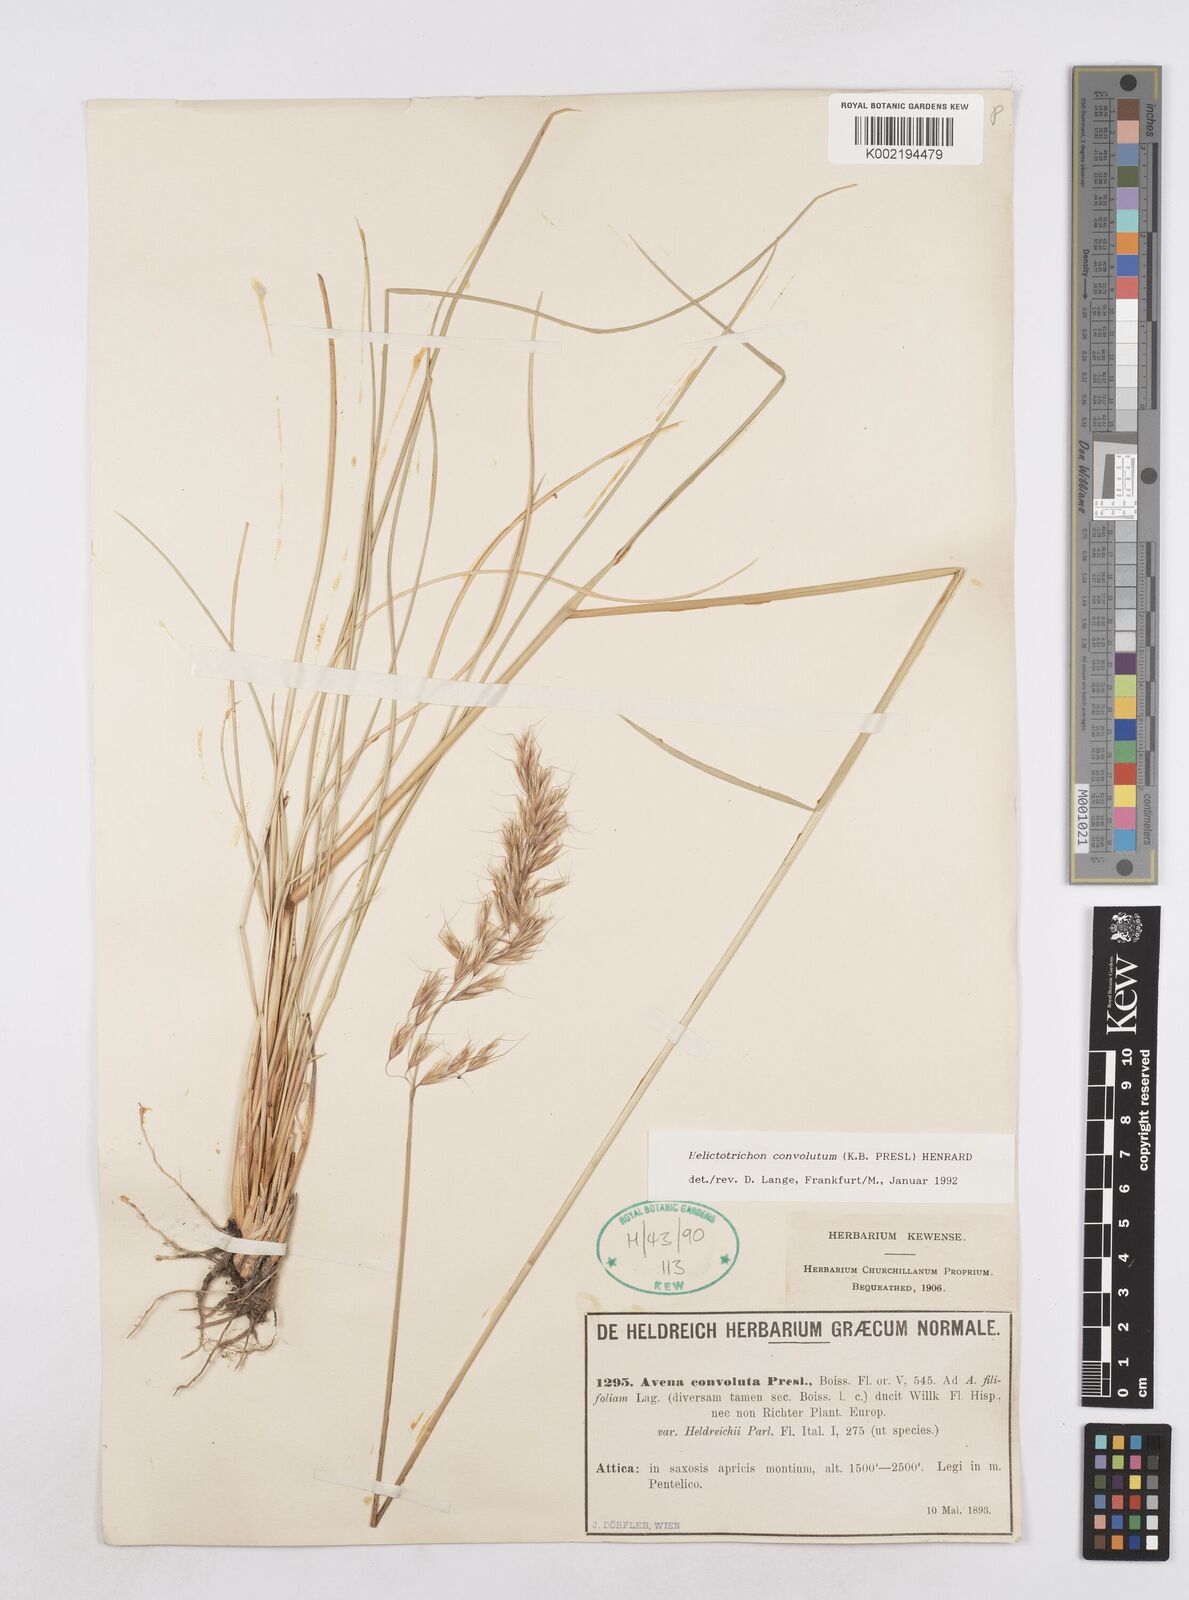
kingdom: Plantae
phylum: Tracheophyta
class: Liliopsida
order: Poales
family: Poaceae
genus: Helictotrichon
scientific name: Helictotrichon convolutum
